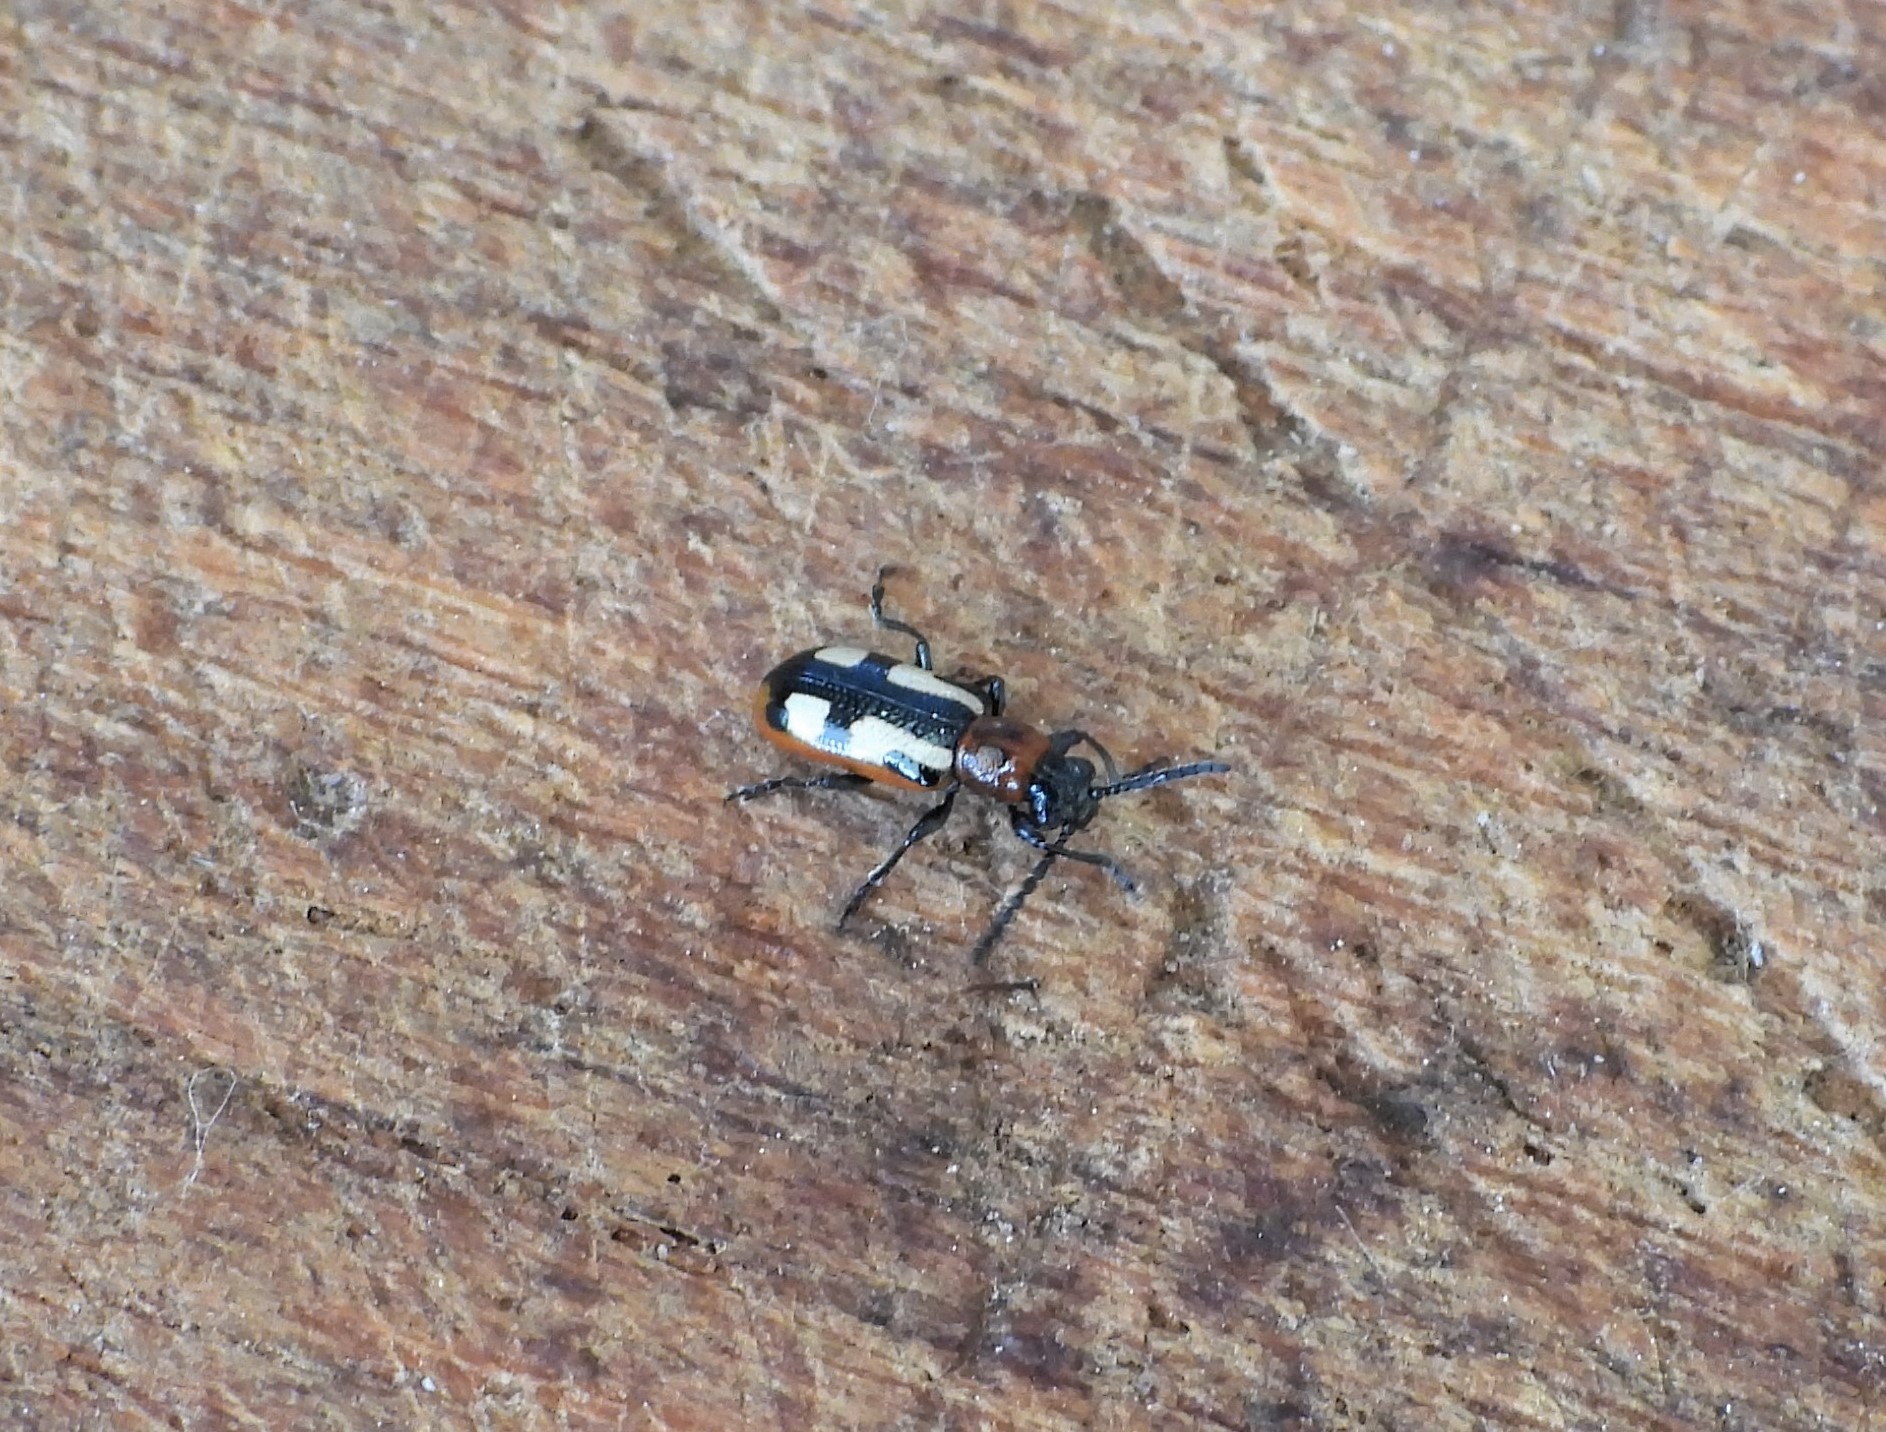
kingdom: Animalia
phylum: Arthropoda
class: Insecta
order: Coleoptera
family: Chrysomelidae
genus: Crioceris
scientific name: Crioceris asparagi
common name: Gulplettet aspargesbille
